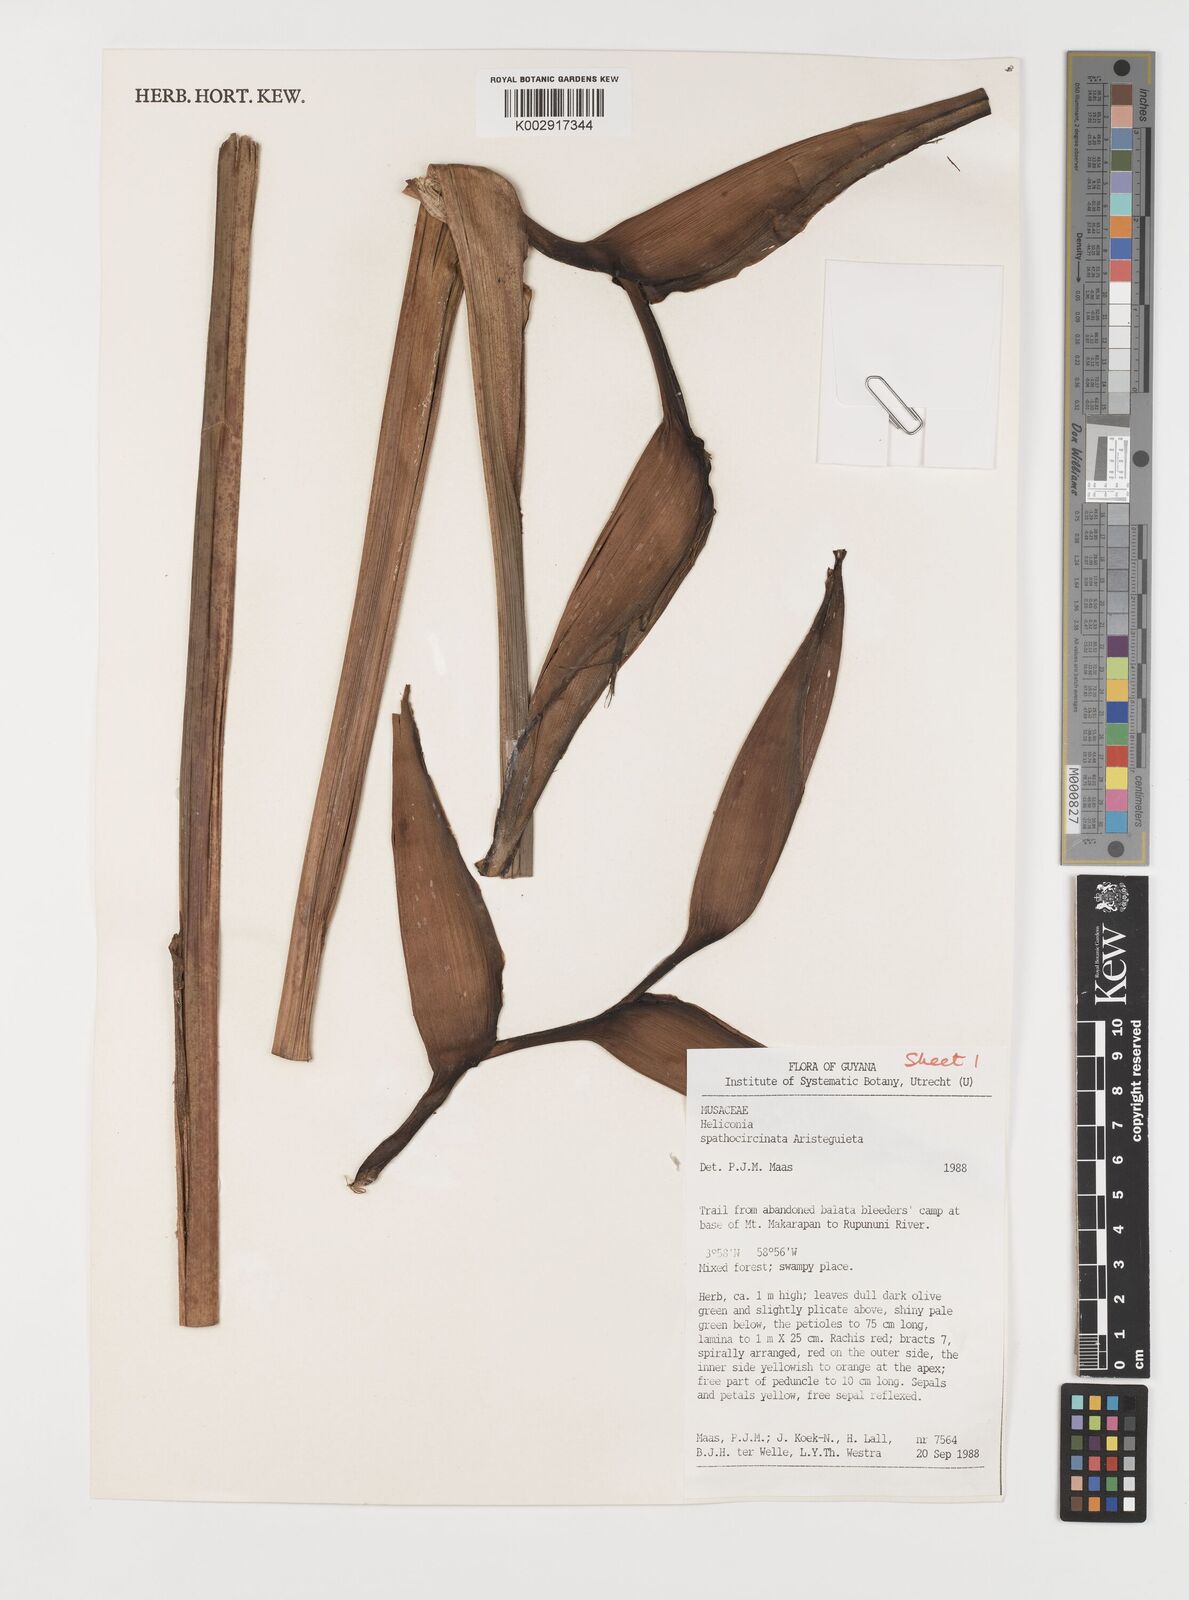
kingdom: Plantae
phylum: Tracheophyta
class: Liliopsida
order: Zingiberales
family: Heliconiaceae
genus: Heliconia
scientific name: Heliconia spathocircinata
